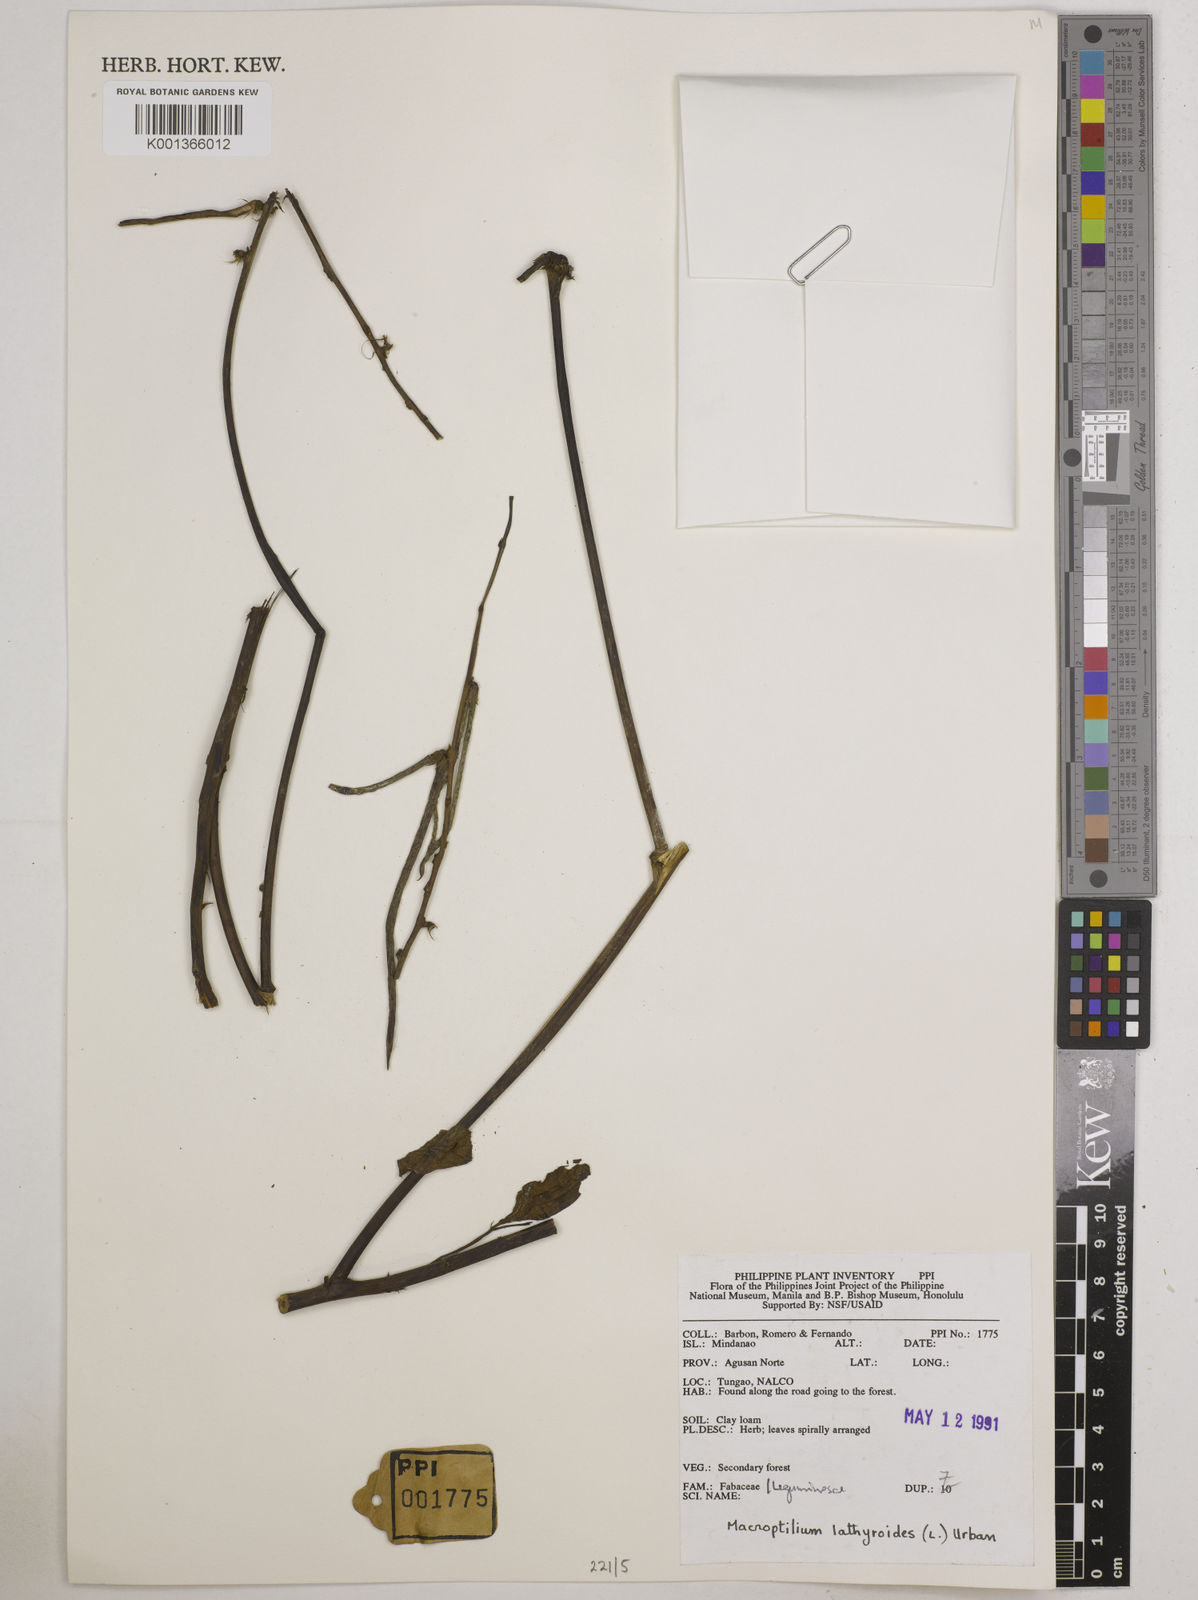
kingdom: Plantae
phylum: Tracheophyta
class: Magnoliopsida
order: Fabales
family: Fabaceae
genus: Macroptilium
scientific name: Macroptilium lathyroides
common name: Wild bushbean
